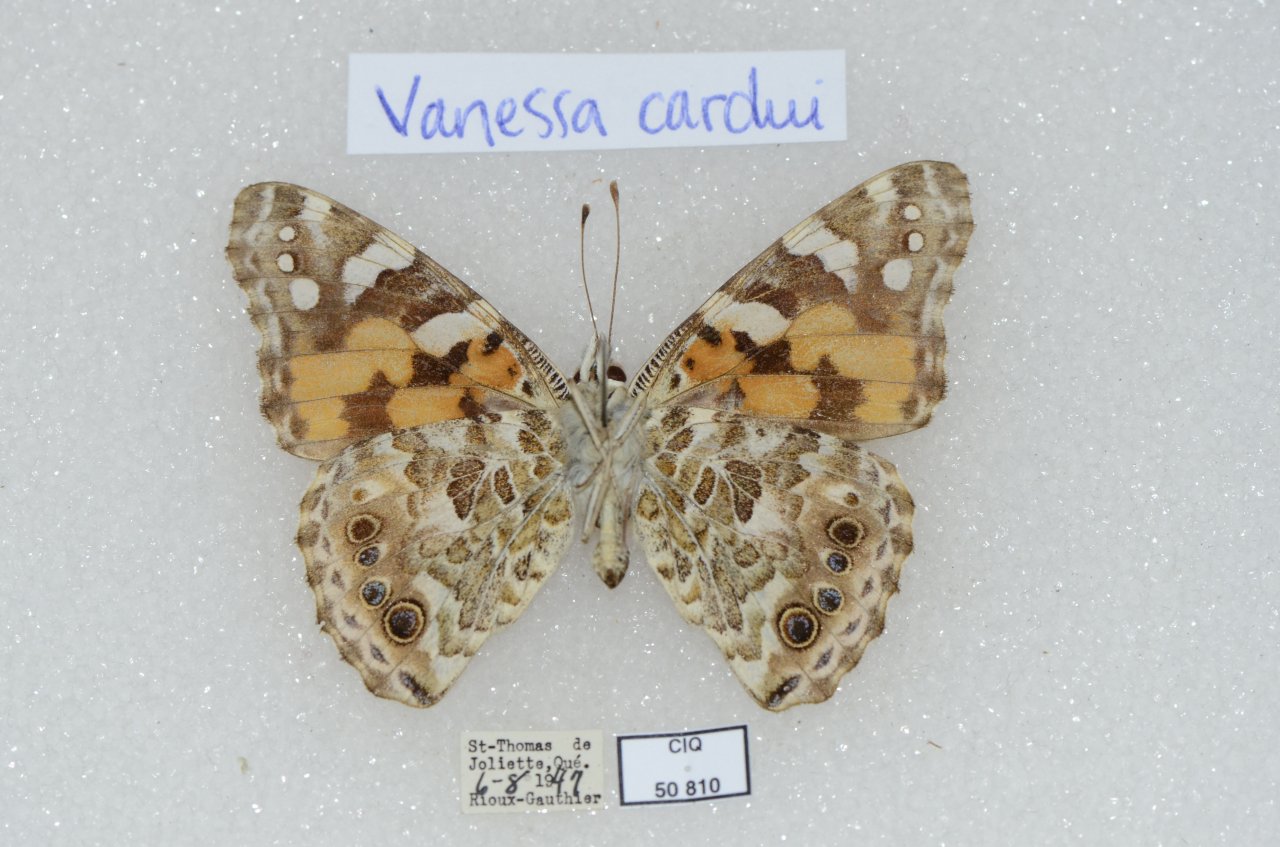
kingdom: Animalia
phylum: Arthropoda
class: Insecta
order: Lepidoptera
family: Nymphalidae
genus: Vanessa
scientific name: Vanessa cardui
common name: Painted Lady
